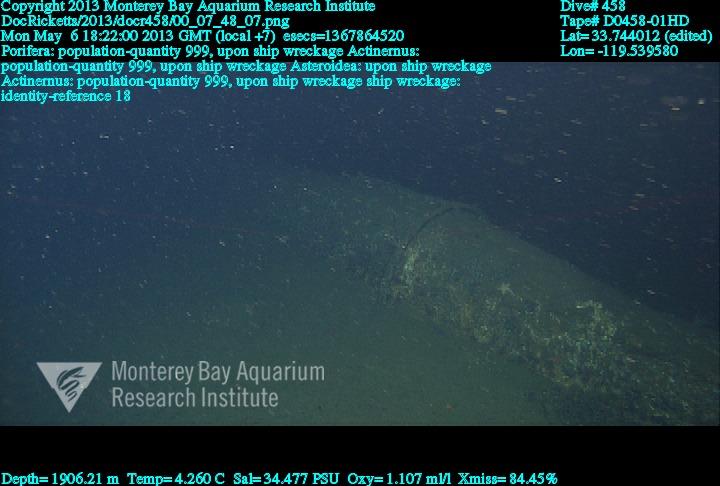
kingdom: Animalia
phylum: Porifera
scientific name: Porifera
